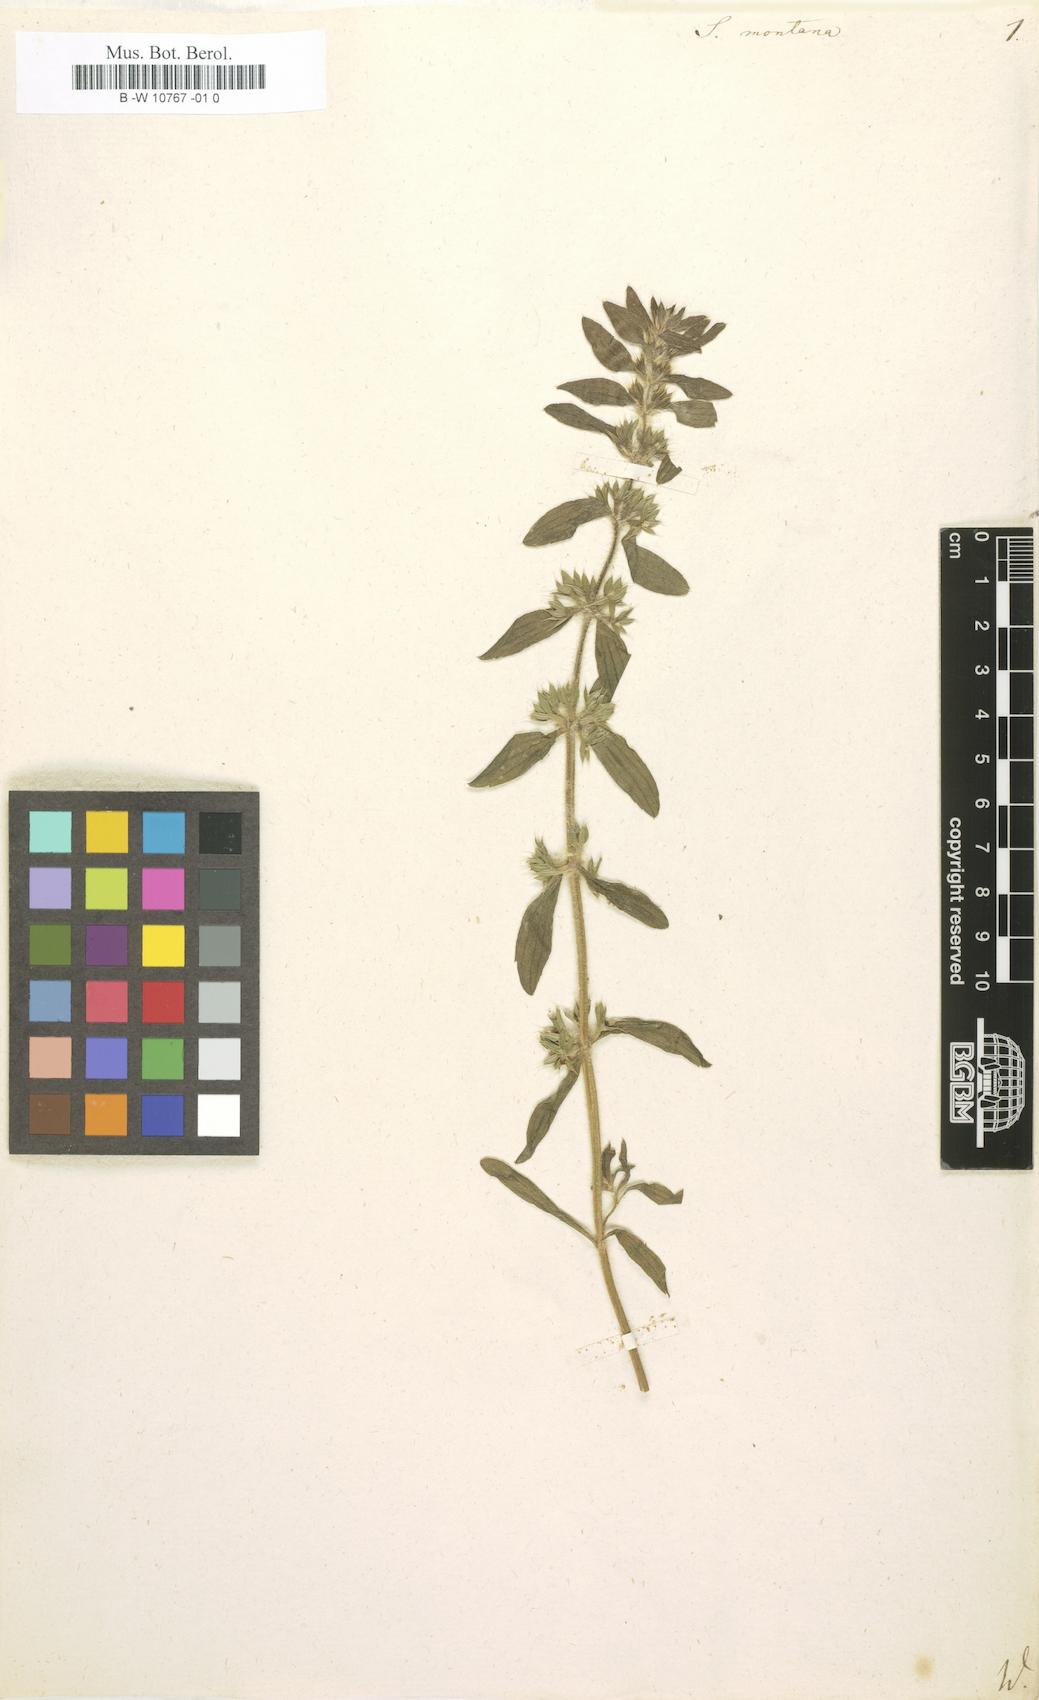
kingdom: Plantae
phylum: Tracheophyta
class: Magnoliopsida
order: Lamiales
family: Lamiaceae
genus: Sideritis
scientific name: Sideritis montana
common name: Mountain ironwort
